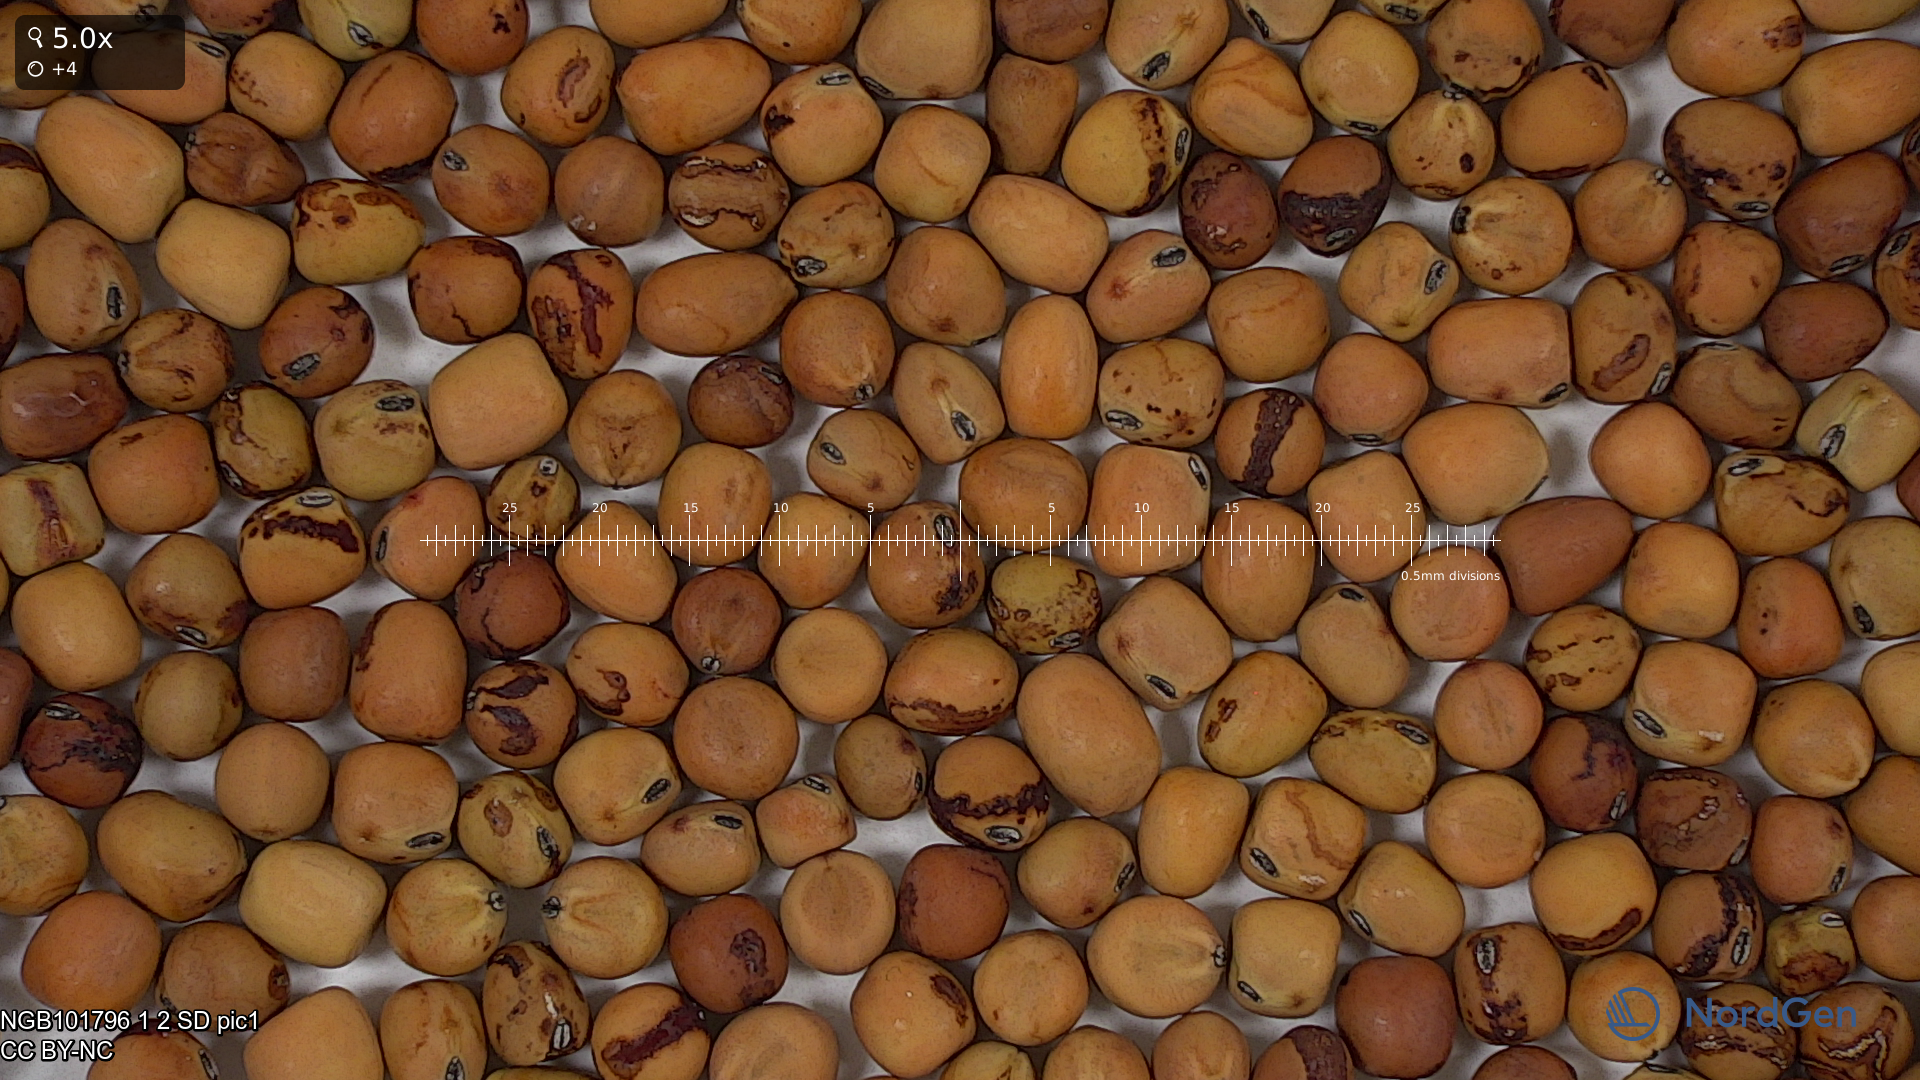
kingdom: Plantae
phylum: Tracheophyta
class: Magnoliopsida
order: Fabales
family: Fabaceae
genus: Lathyrus
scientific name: Lathyrus oleraceus
